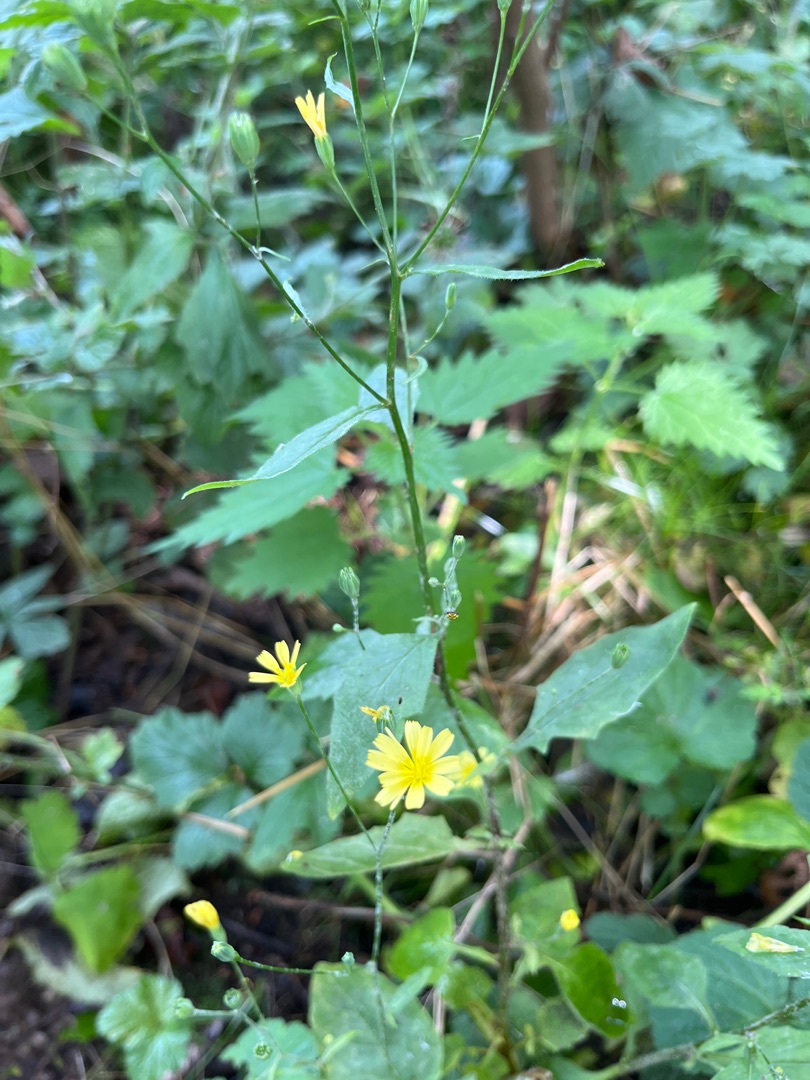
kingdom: Plantae
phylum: Tracheophyta
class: Magnoliopsida
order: Asterales
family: Asteraceae
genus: Lapsana
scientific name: Lapsana communis
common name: Haremad
